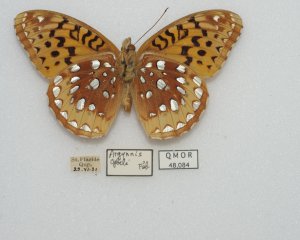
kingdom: Animalia
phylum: Arthropoda
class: Insecta
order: Lepidoptera
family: Nymphalidae
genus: Speyeria
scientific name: Speyeria cybele
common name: Great Spangled Fritillary
